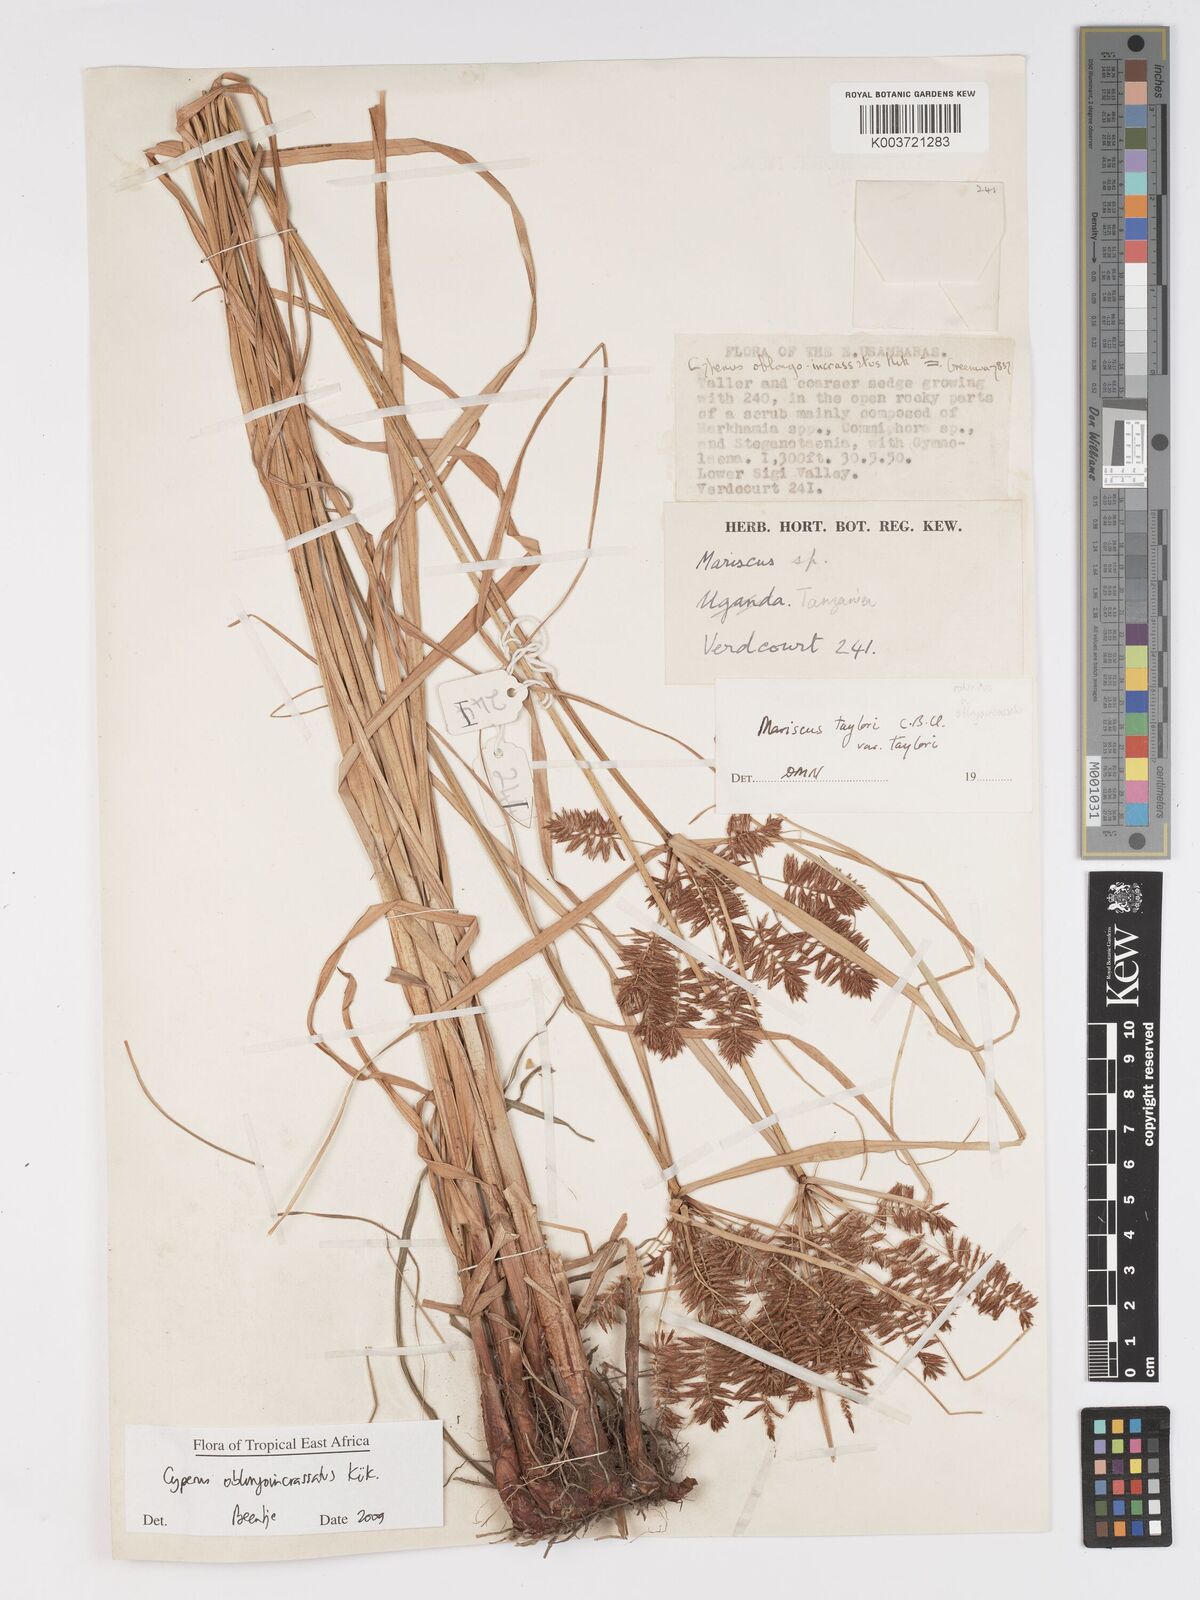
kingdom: Plantae
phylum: Tracheophyta
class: Liliopsida
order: Poales
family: Cyperaceae
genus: Cyperus
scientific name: Cyperus oblongoincrassatus
